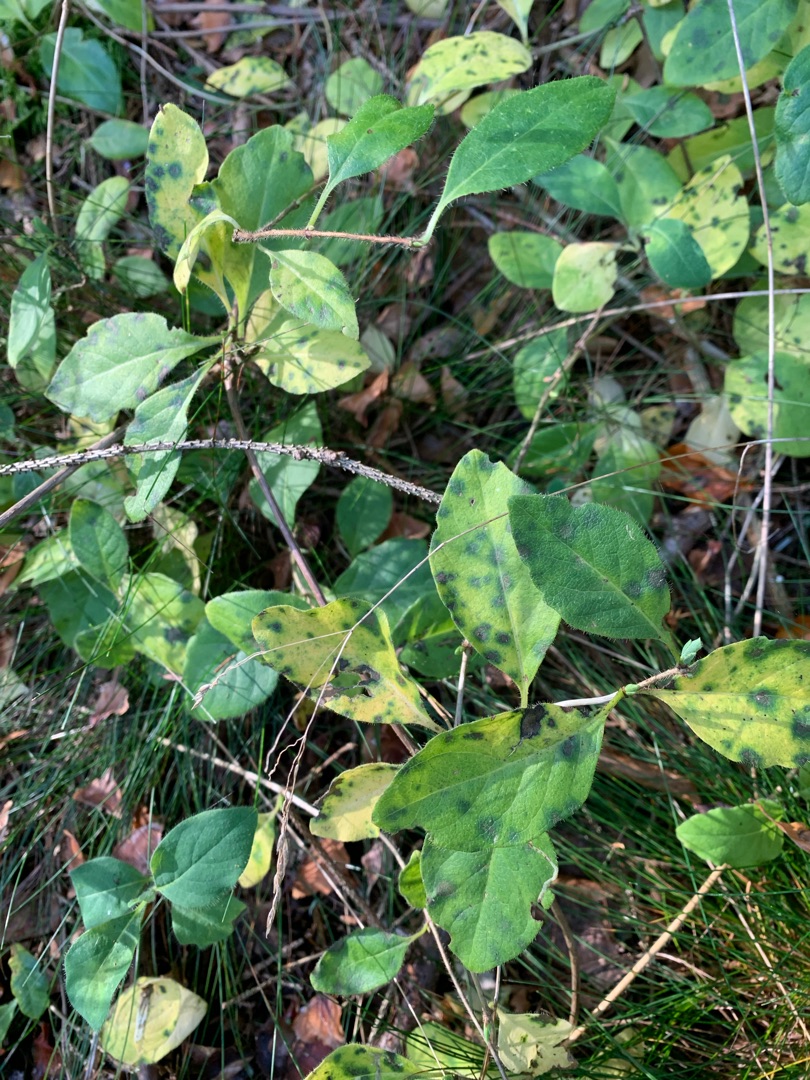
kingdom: Plantae
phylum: Tracheophyta
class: Magnoliopsida
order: Dipsacales
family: Caprifoliaceae
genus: Lonicera
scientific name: Lonicera periclymenum
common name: Almindelig gedeblad
